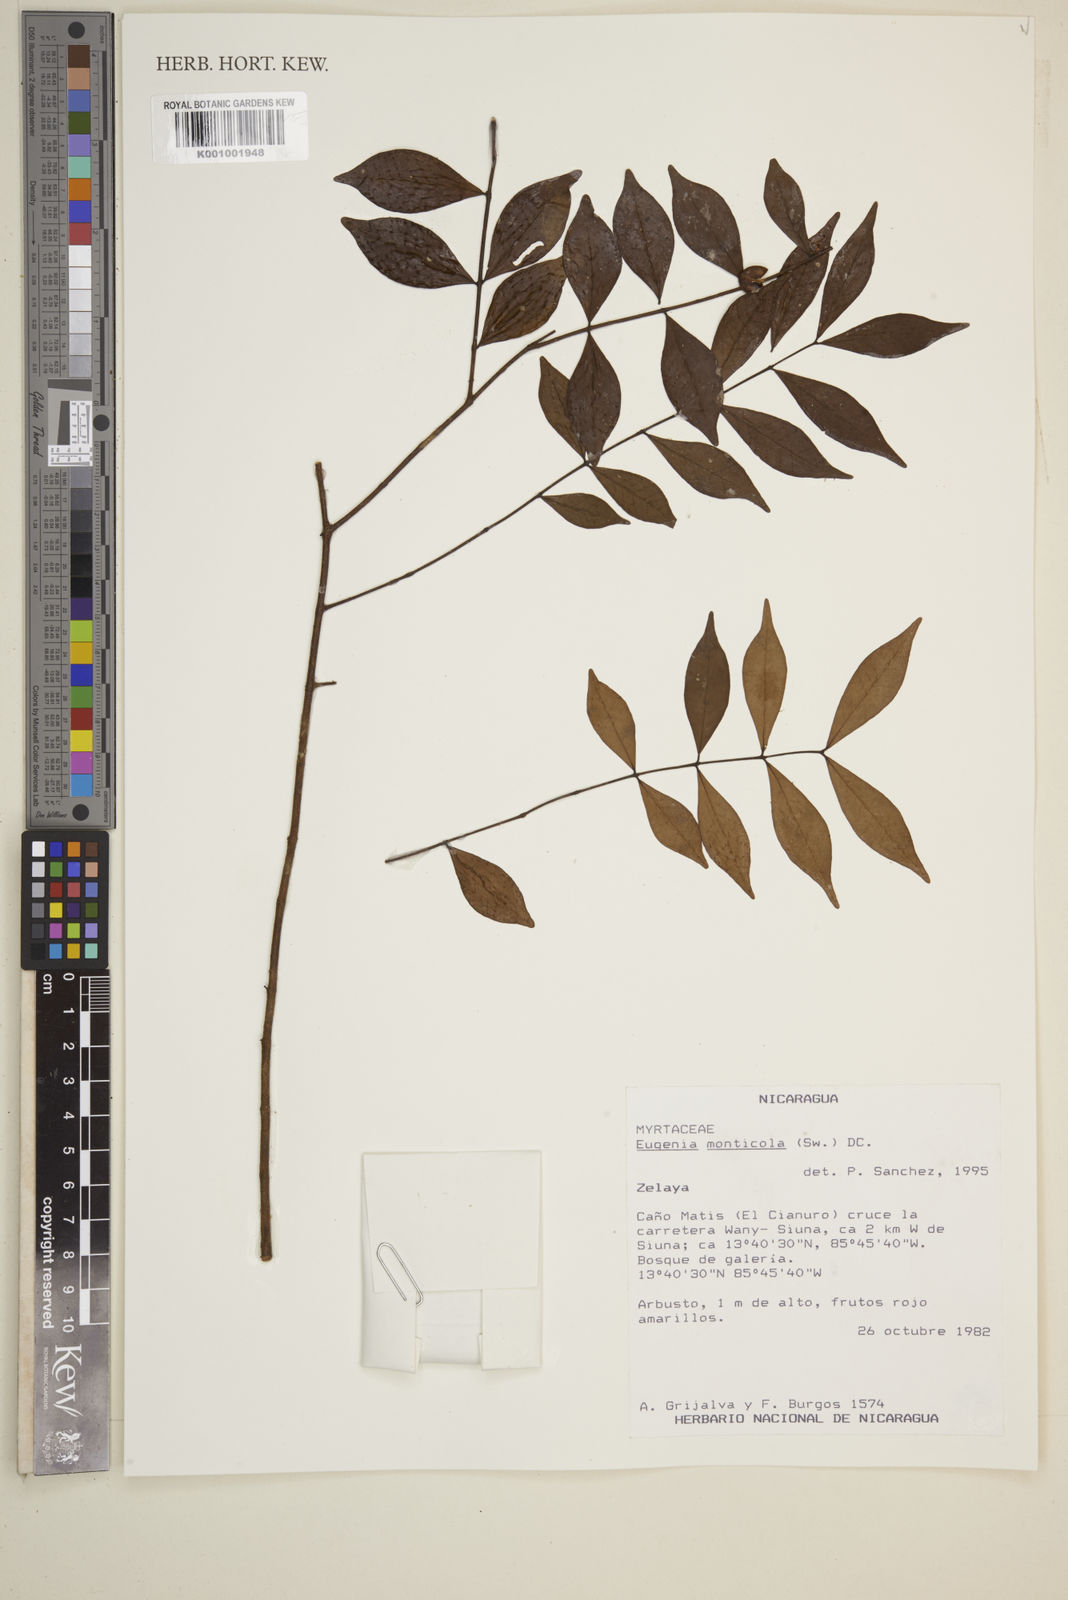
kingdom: Plantae
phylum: Tracheophyta
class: Magnoliopsida
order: Myrtales
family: Myrtaceae
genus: Eugenia
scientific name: Eugenia monticola
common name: Birds berry
